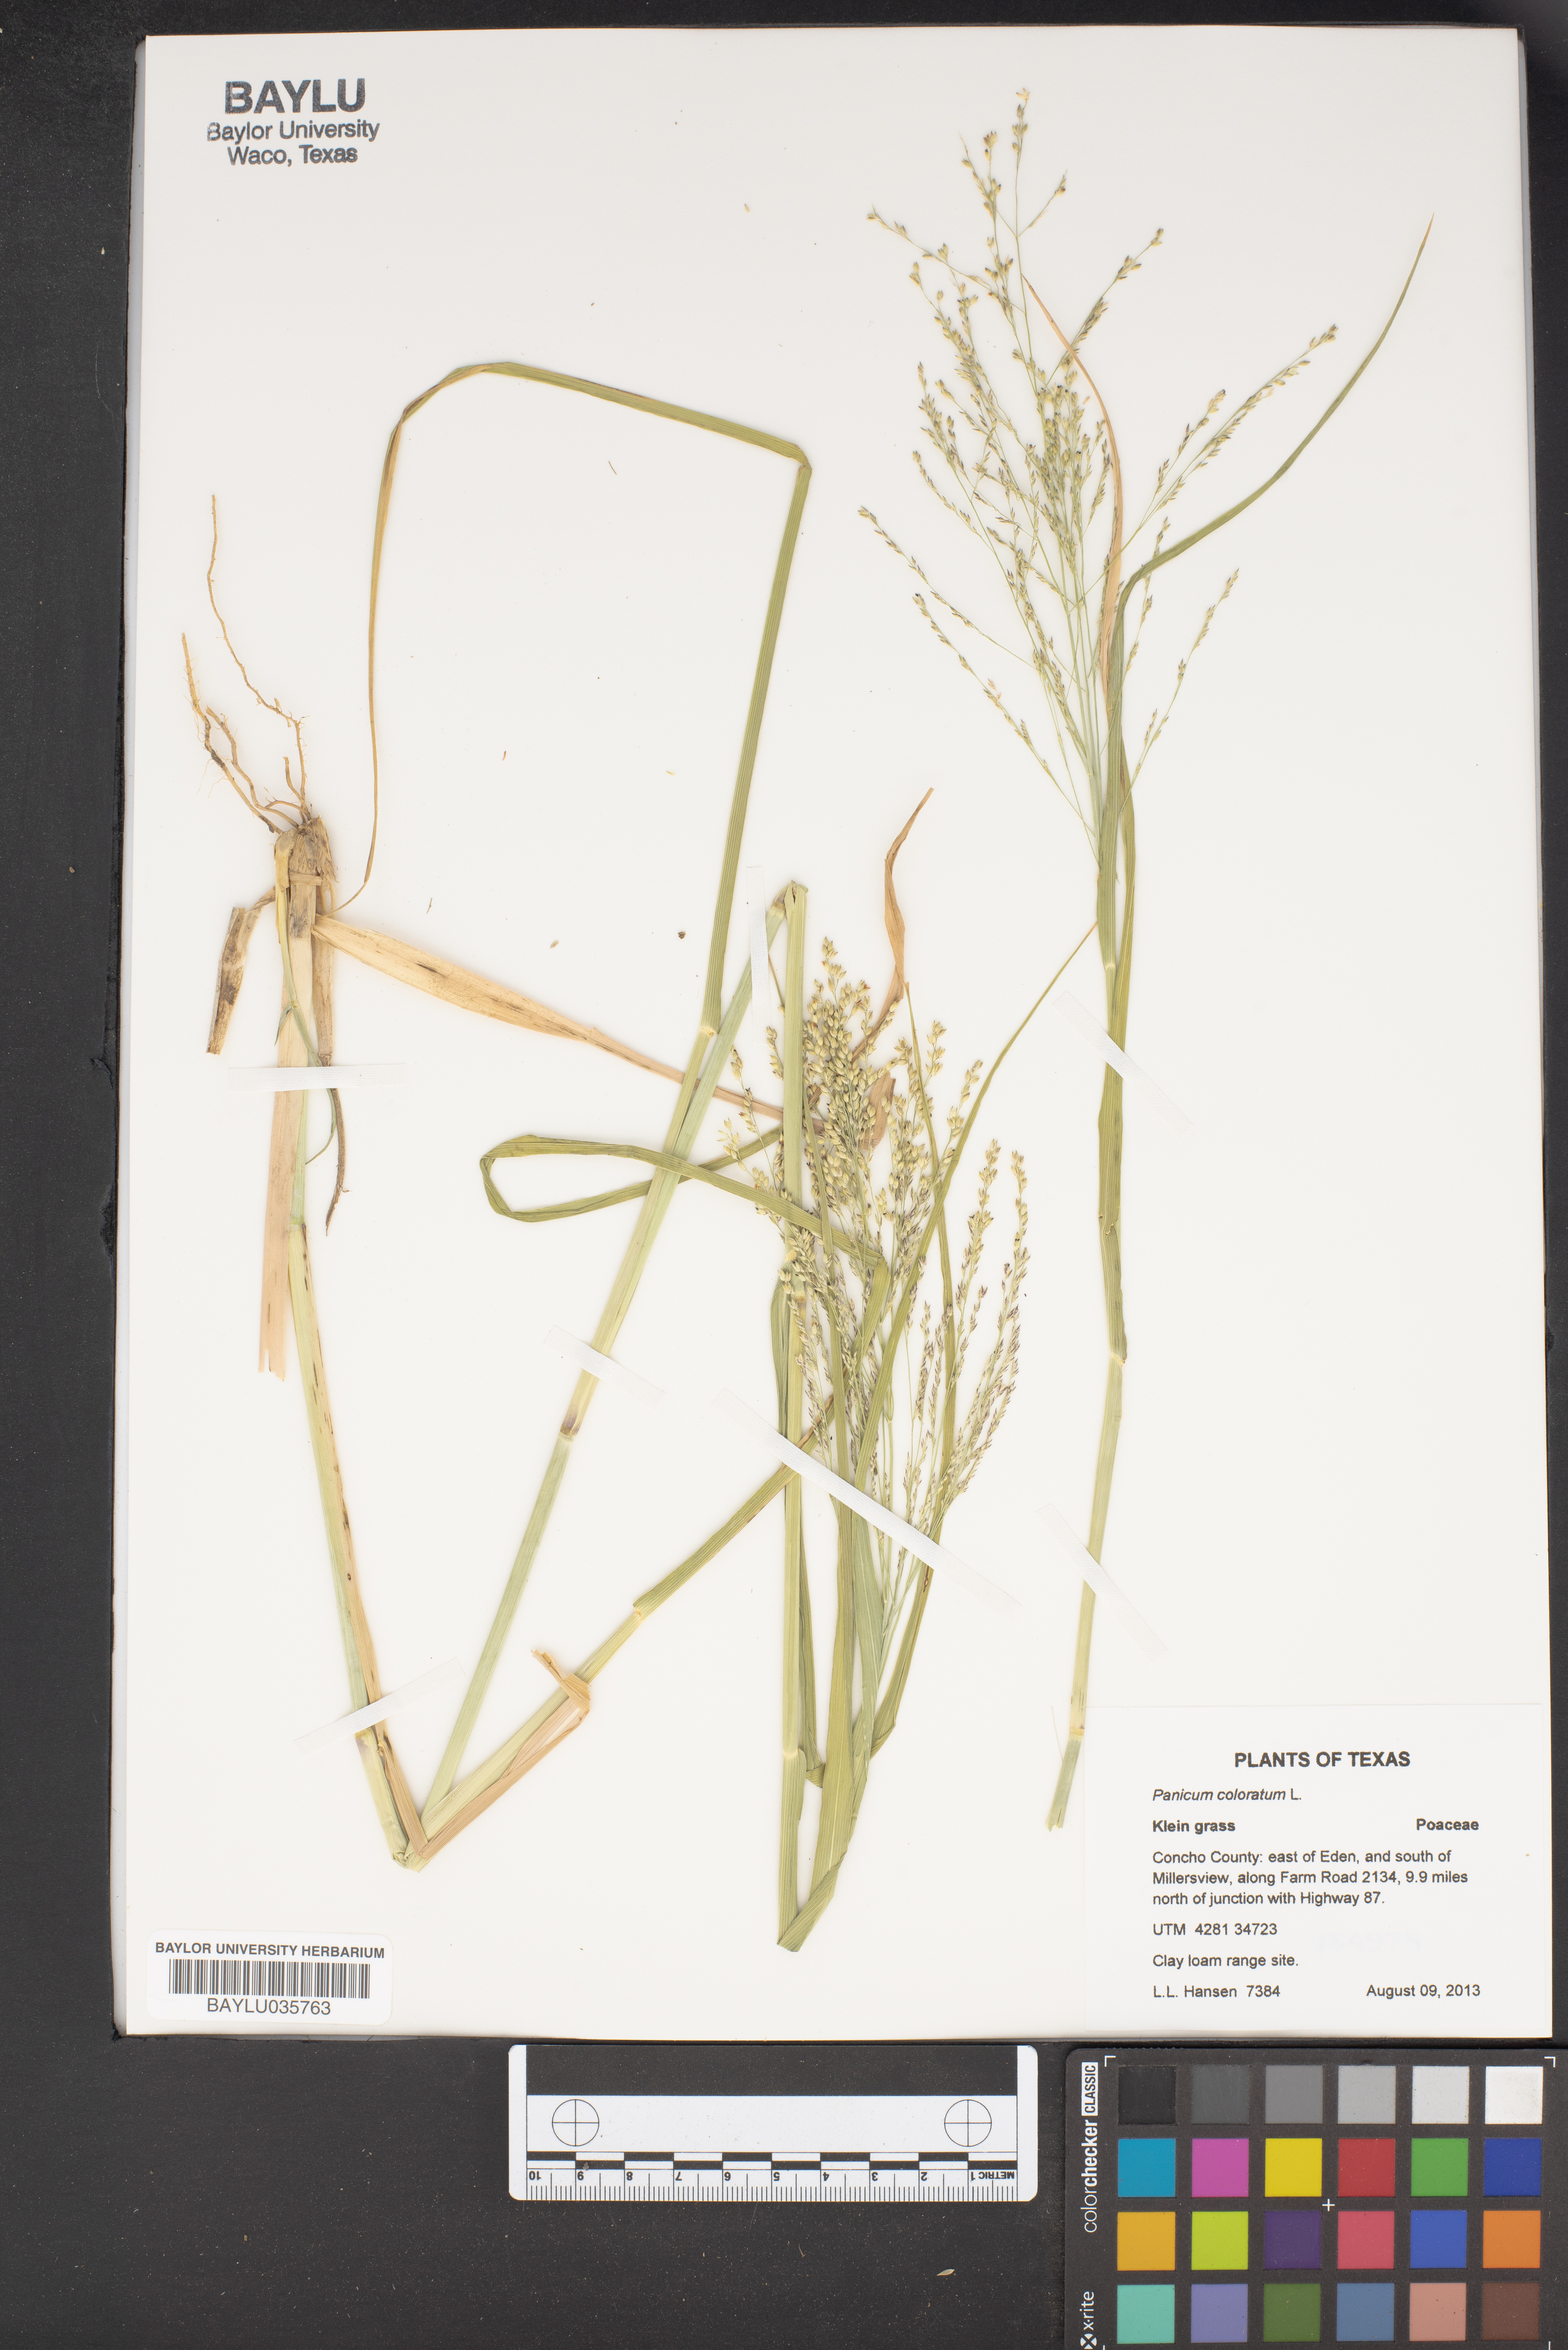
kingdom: Plantae
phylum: Tracheophyta
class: Liliopsida
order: Poales
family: Poaceae
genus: Panicum
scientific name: Panicum coloratum
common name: Kleingrass
